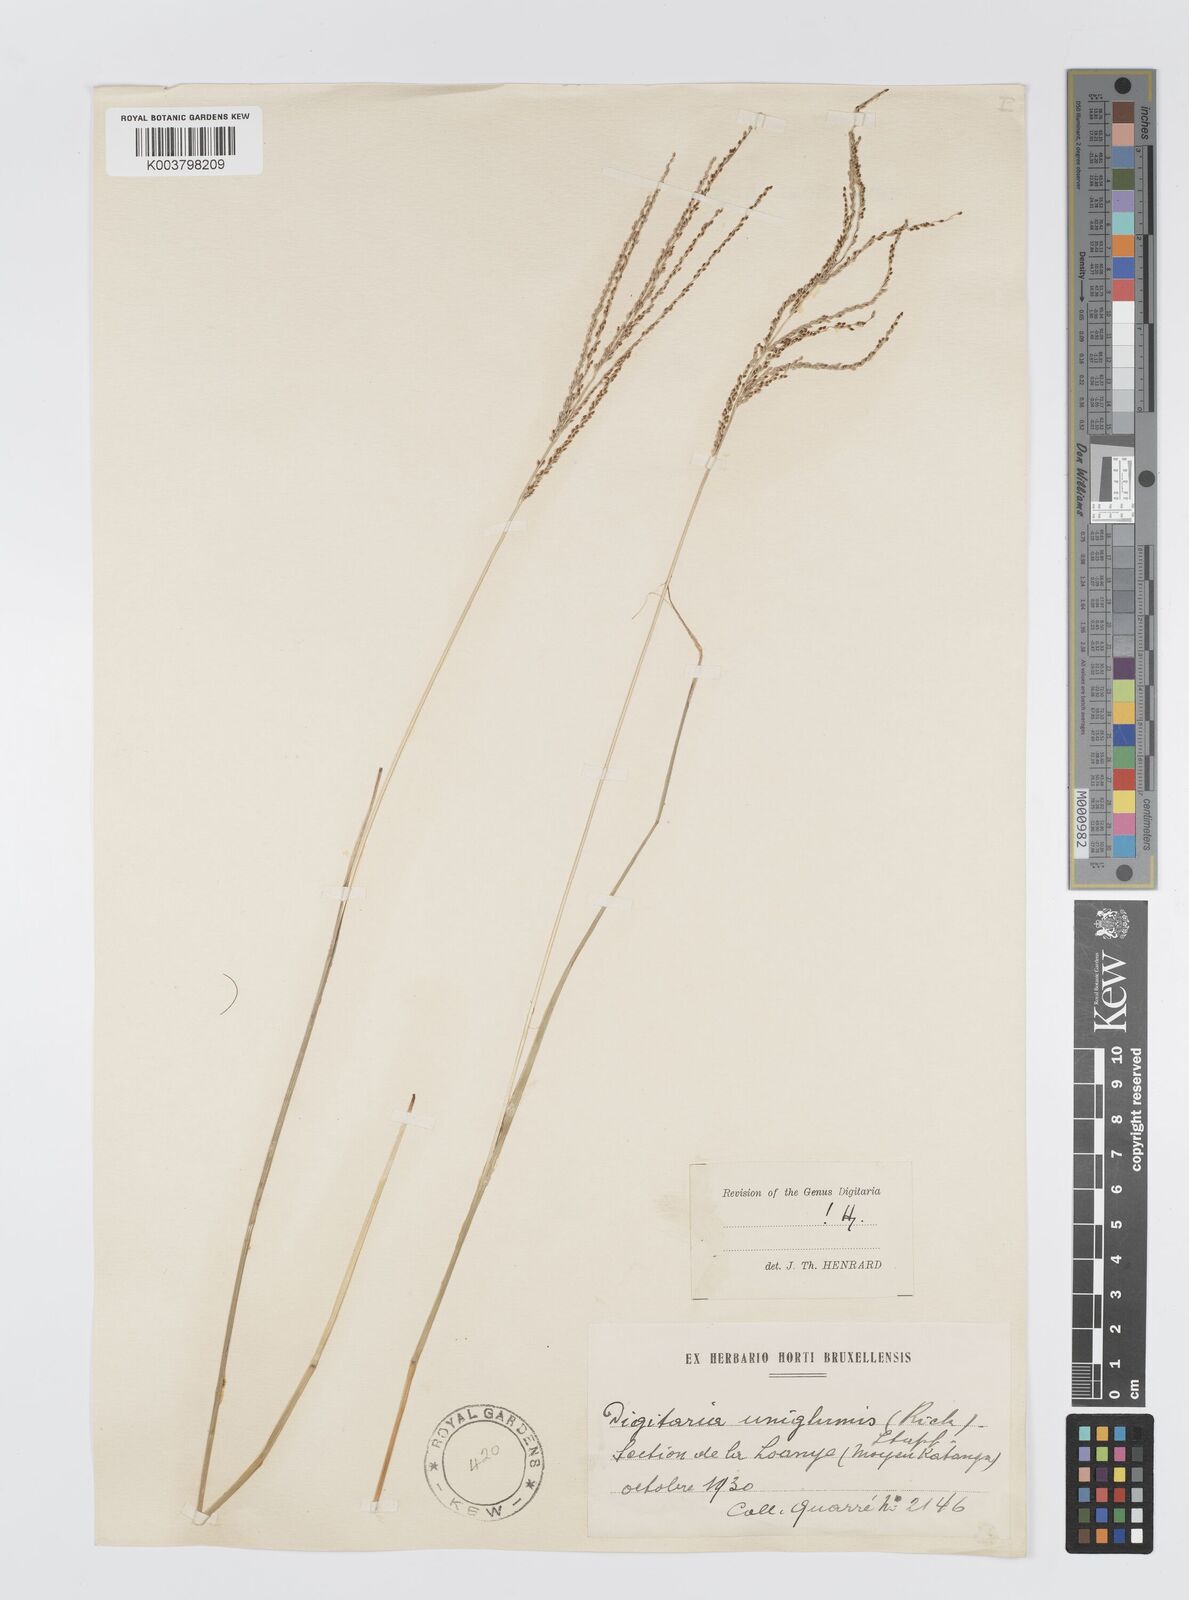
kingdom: Plantae
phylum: Tracheophyta
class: Liliopsida
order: Poales
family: Poaceae
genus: Digitaria
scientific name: Digitaria diagonalis
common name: Brown-seed finger grass
